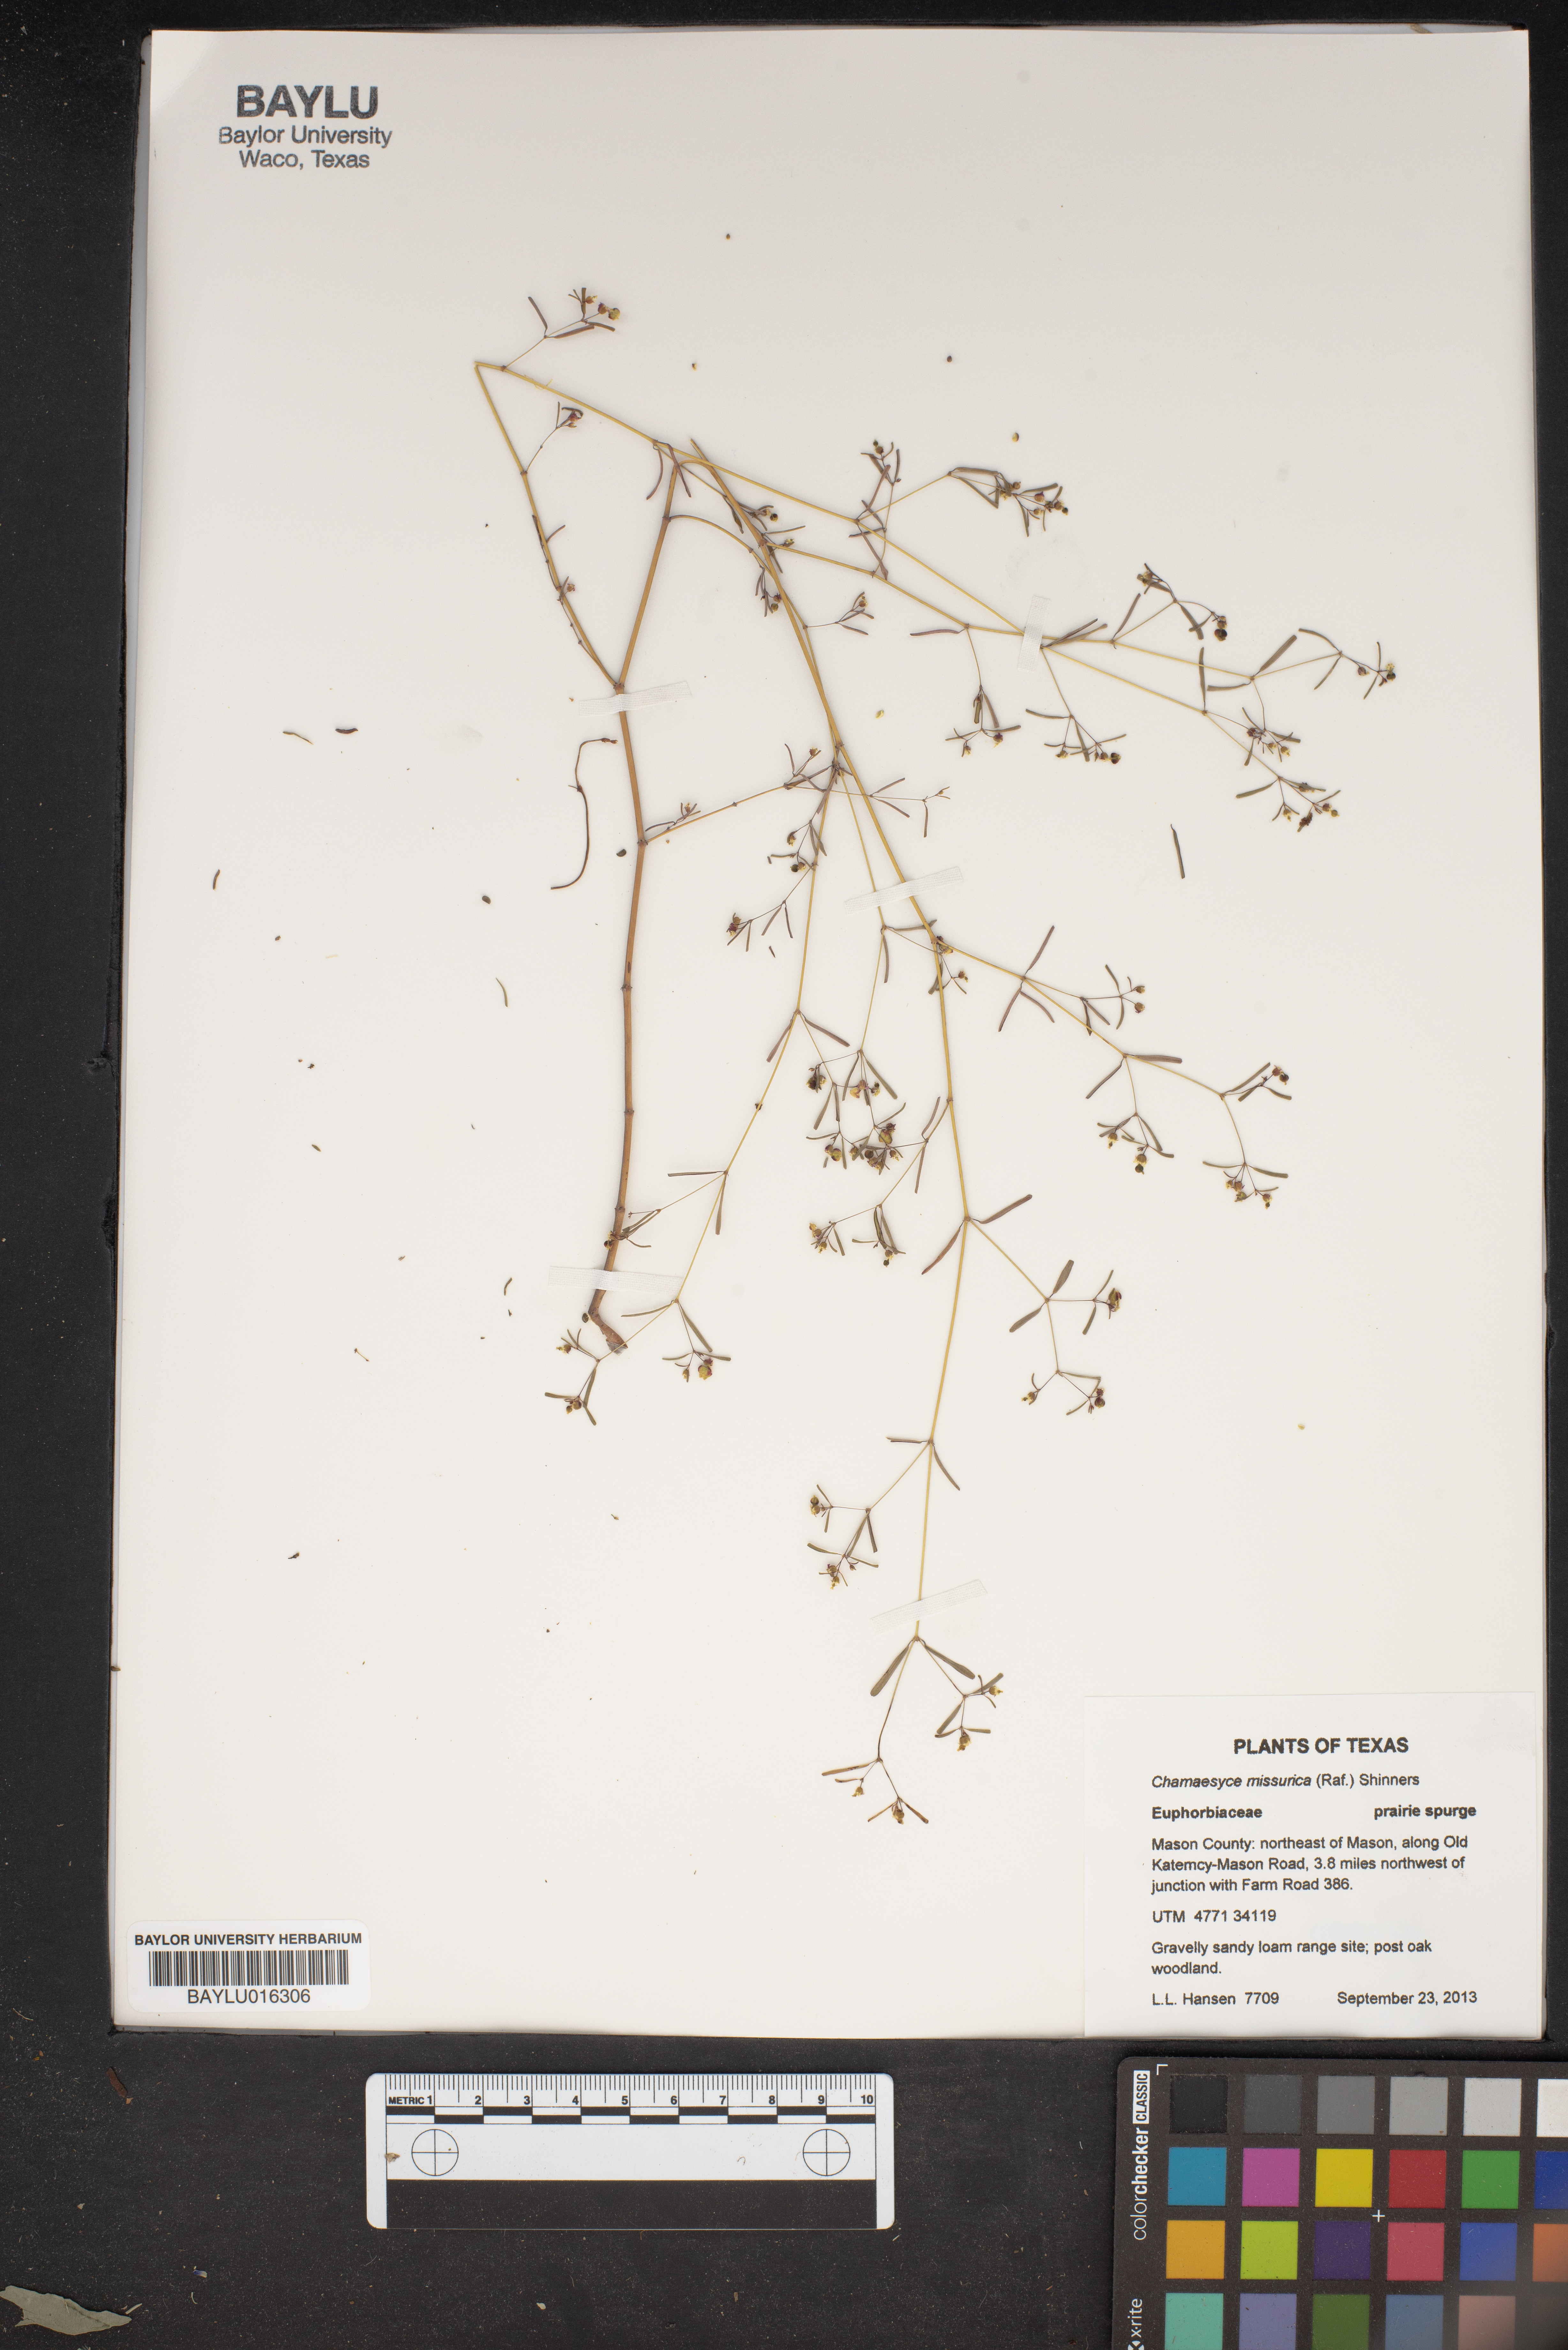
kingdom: Plantae
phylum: Tracheophyta
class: Magnoliopsida
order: Malpighiales
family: Euphorbiaceae
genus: Euphorbia
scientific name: Euphorbia missurica
